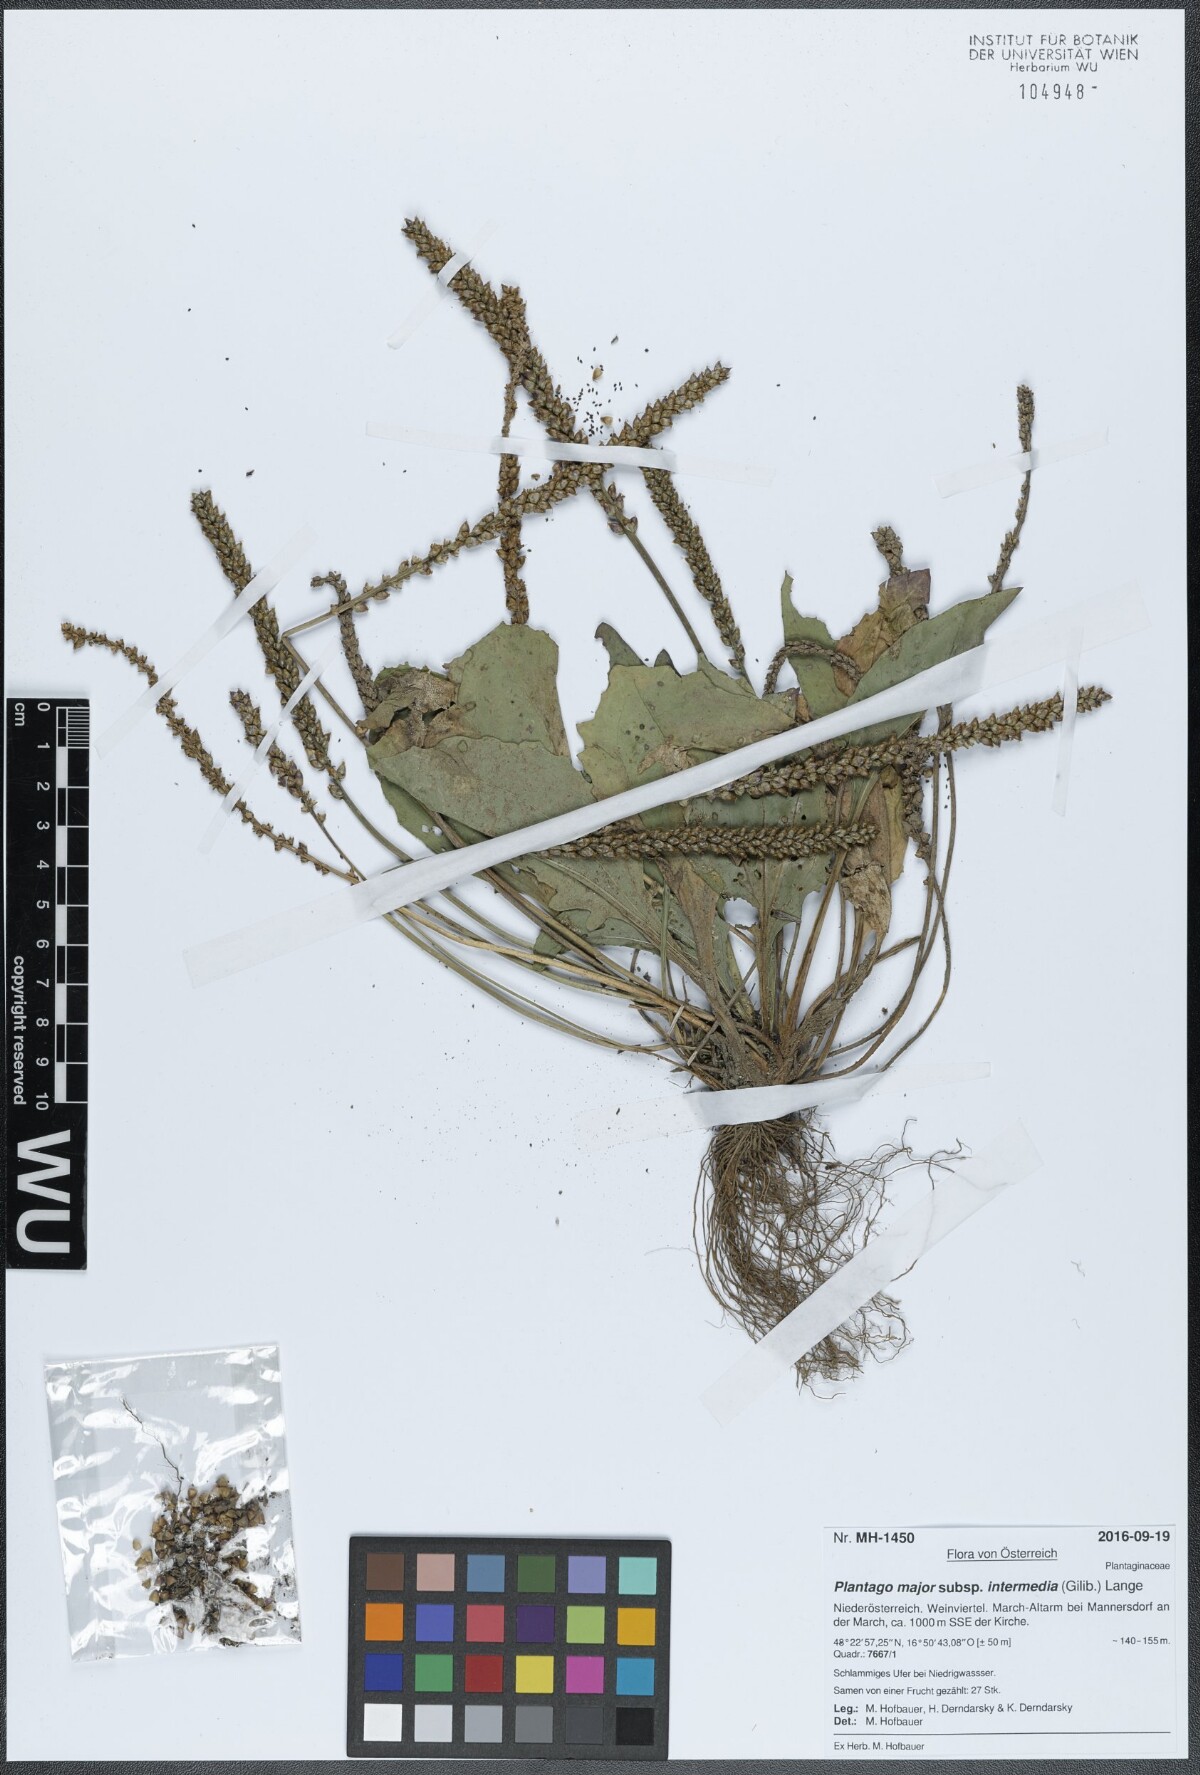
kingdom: Plantae
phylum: Tracheophyta
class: Magnoliopsida
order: Lamiales
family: Plantaginaceae
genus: Plantago
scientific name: Plantago uliginosa
